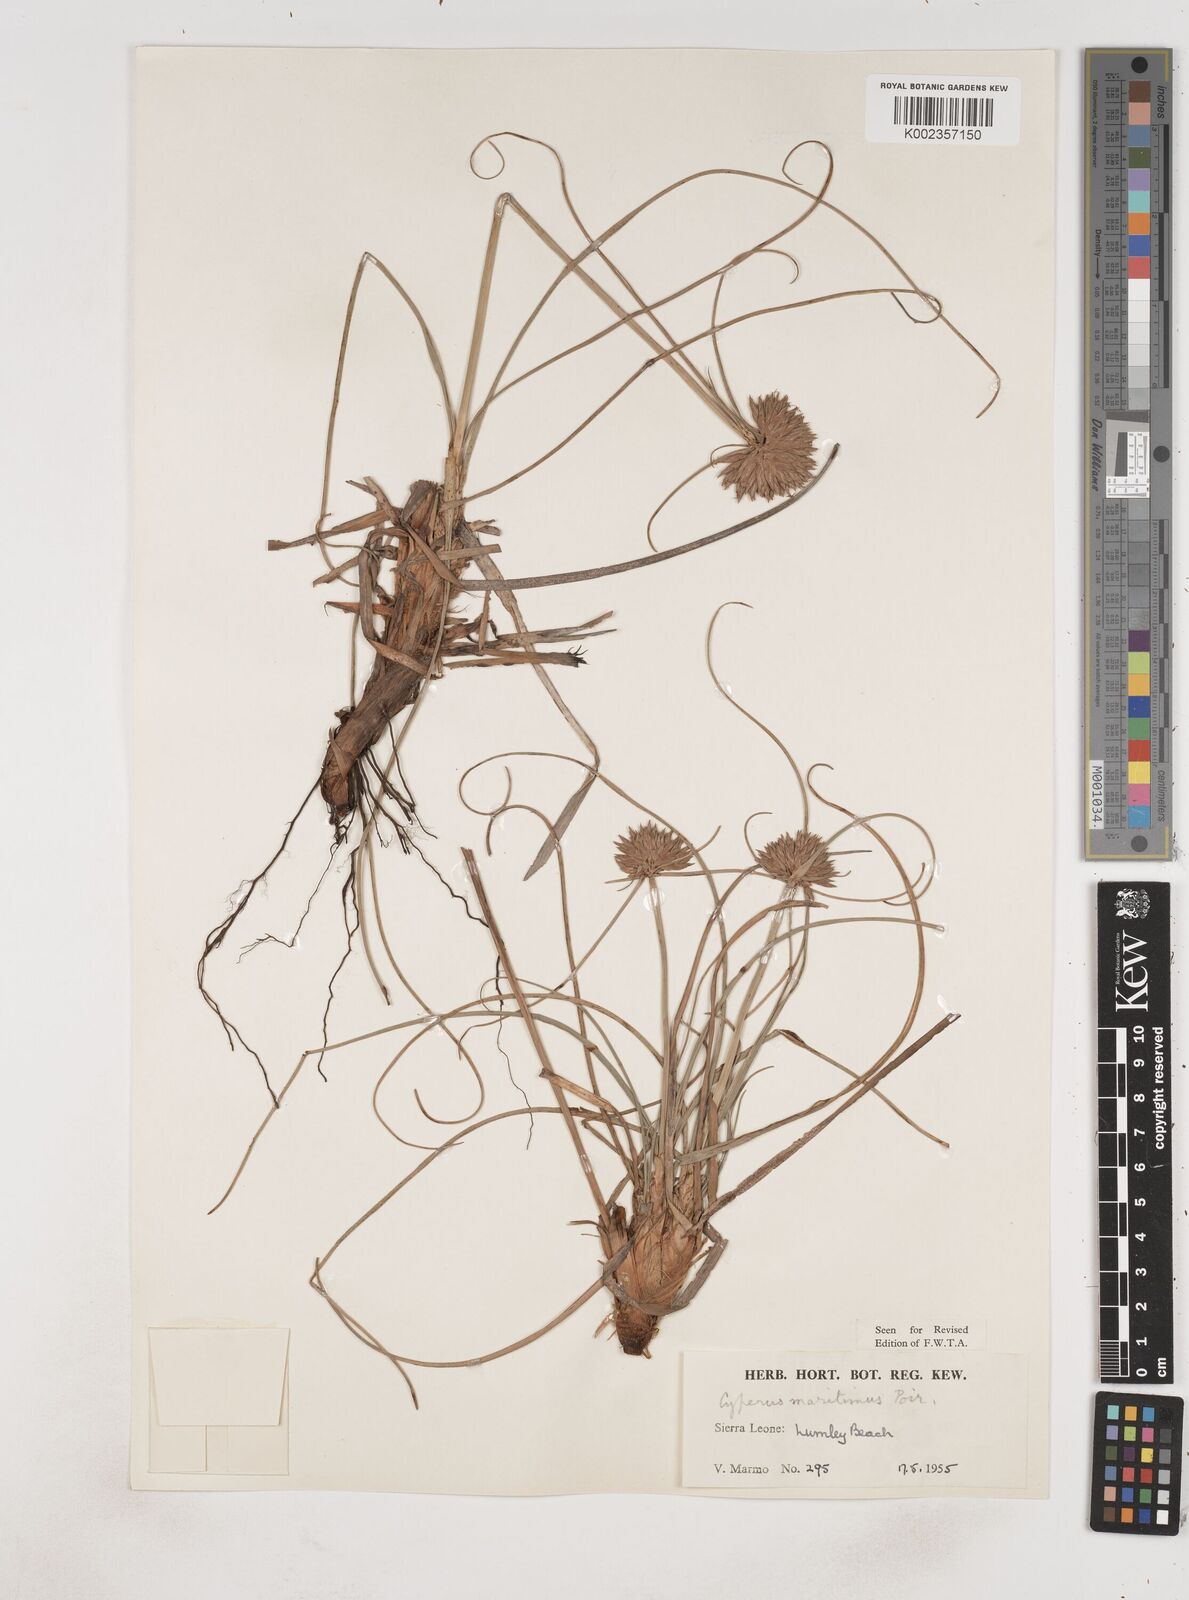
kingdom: Plantae
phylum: Tracheophyta
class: Liliopsida
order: Poales
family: Cyperaceae
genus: Cyperus
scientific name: Cyperus crassipes
